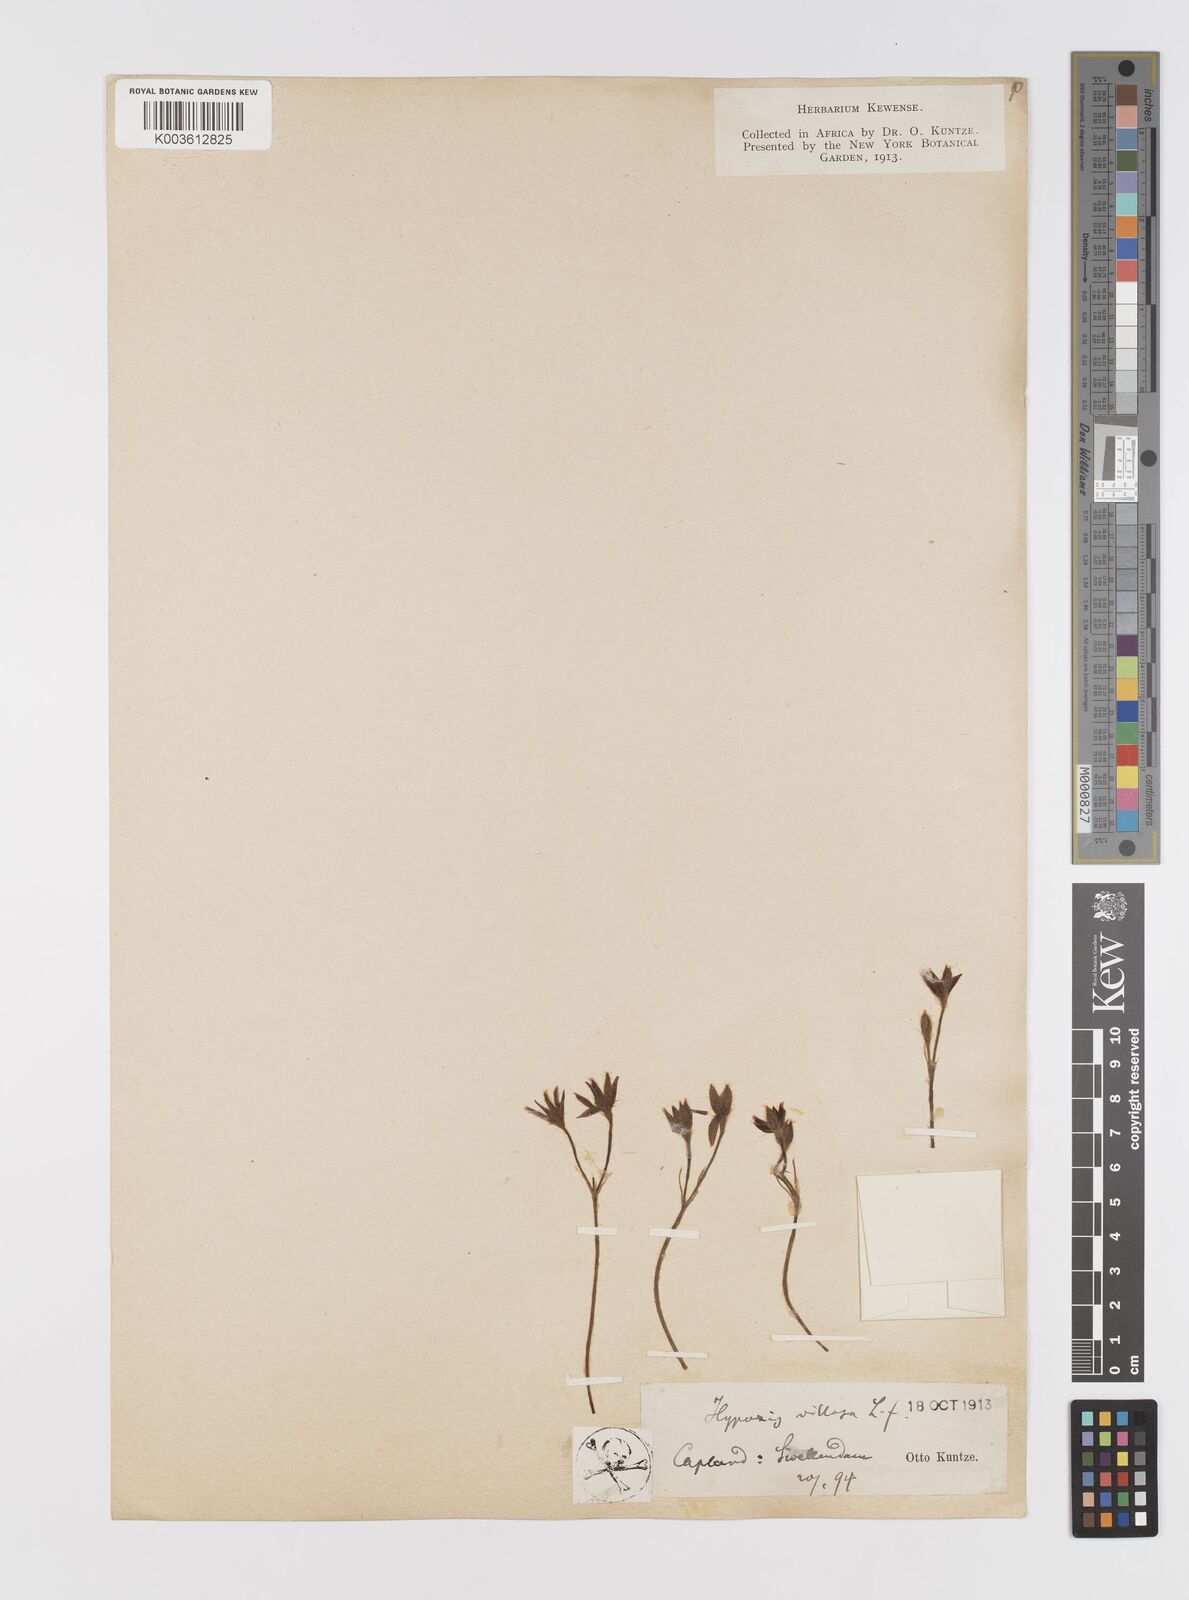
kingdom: Plantae
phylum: Tracheophyta
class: Liliopsida
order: Asparagales
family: Hypoxidaceae
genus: Hypoxis
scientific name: Hypoxis villosa
